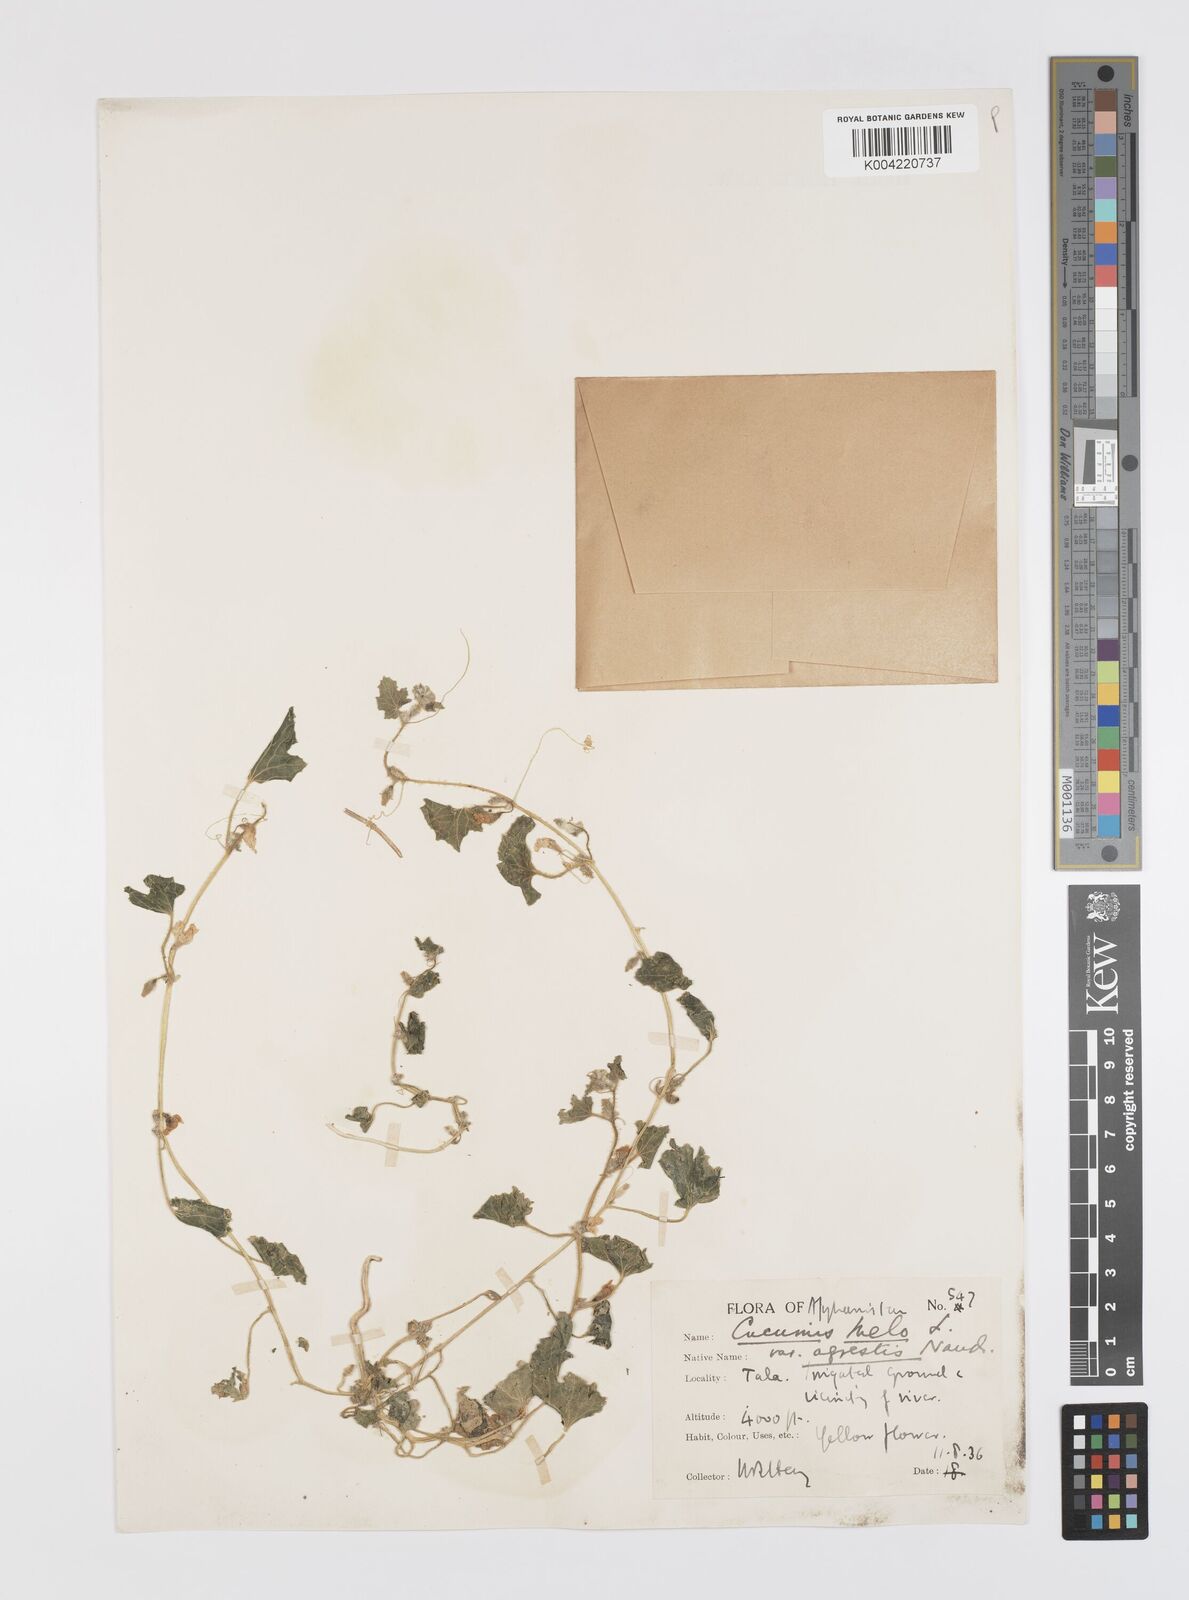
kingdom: Plantae
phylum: Tracheophyta
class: Magnoliopsida
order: Cucurbitales
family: Cucurbitaceae
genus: Cucumis
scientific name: Cucumis melo
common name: Melon
